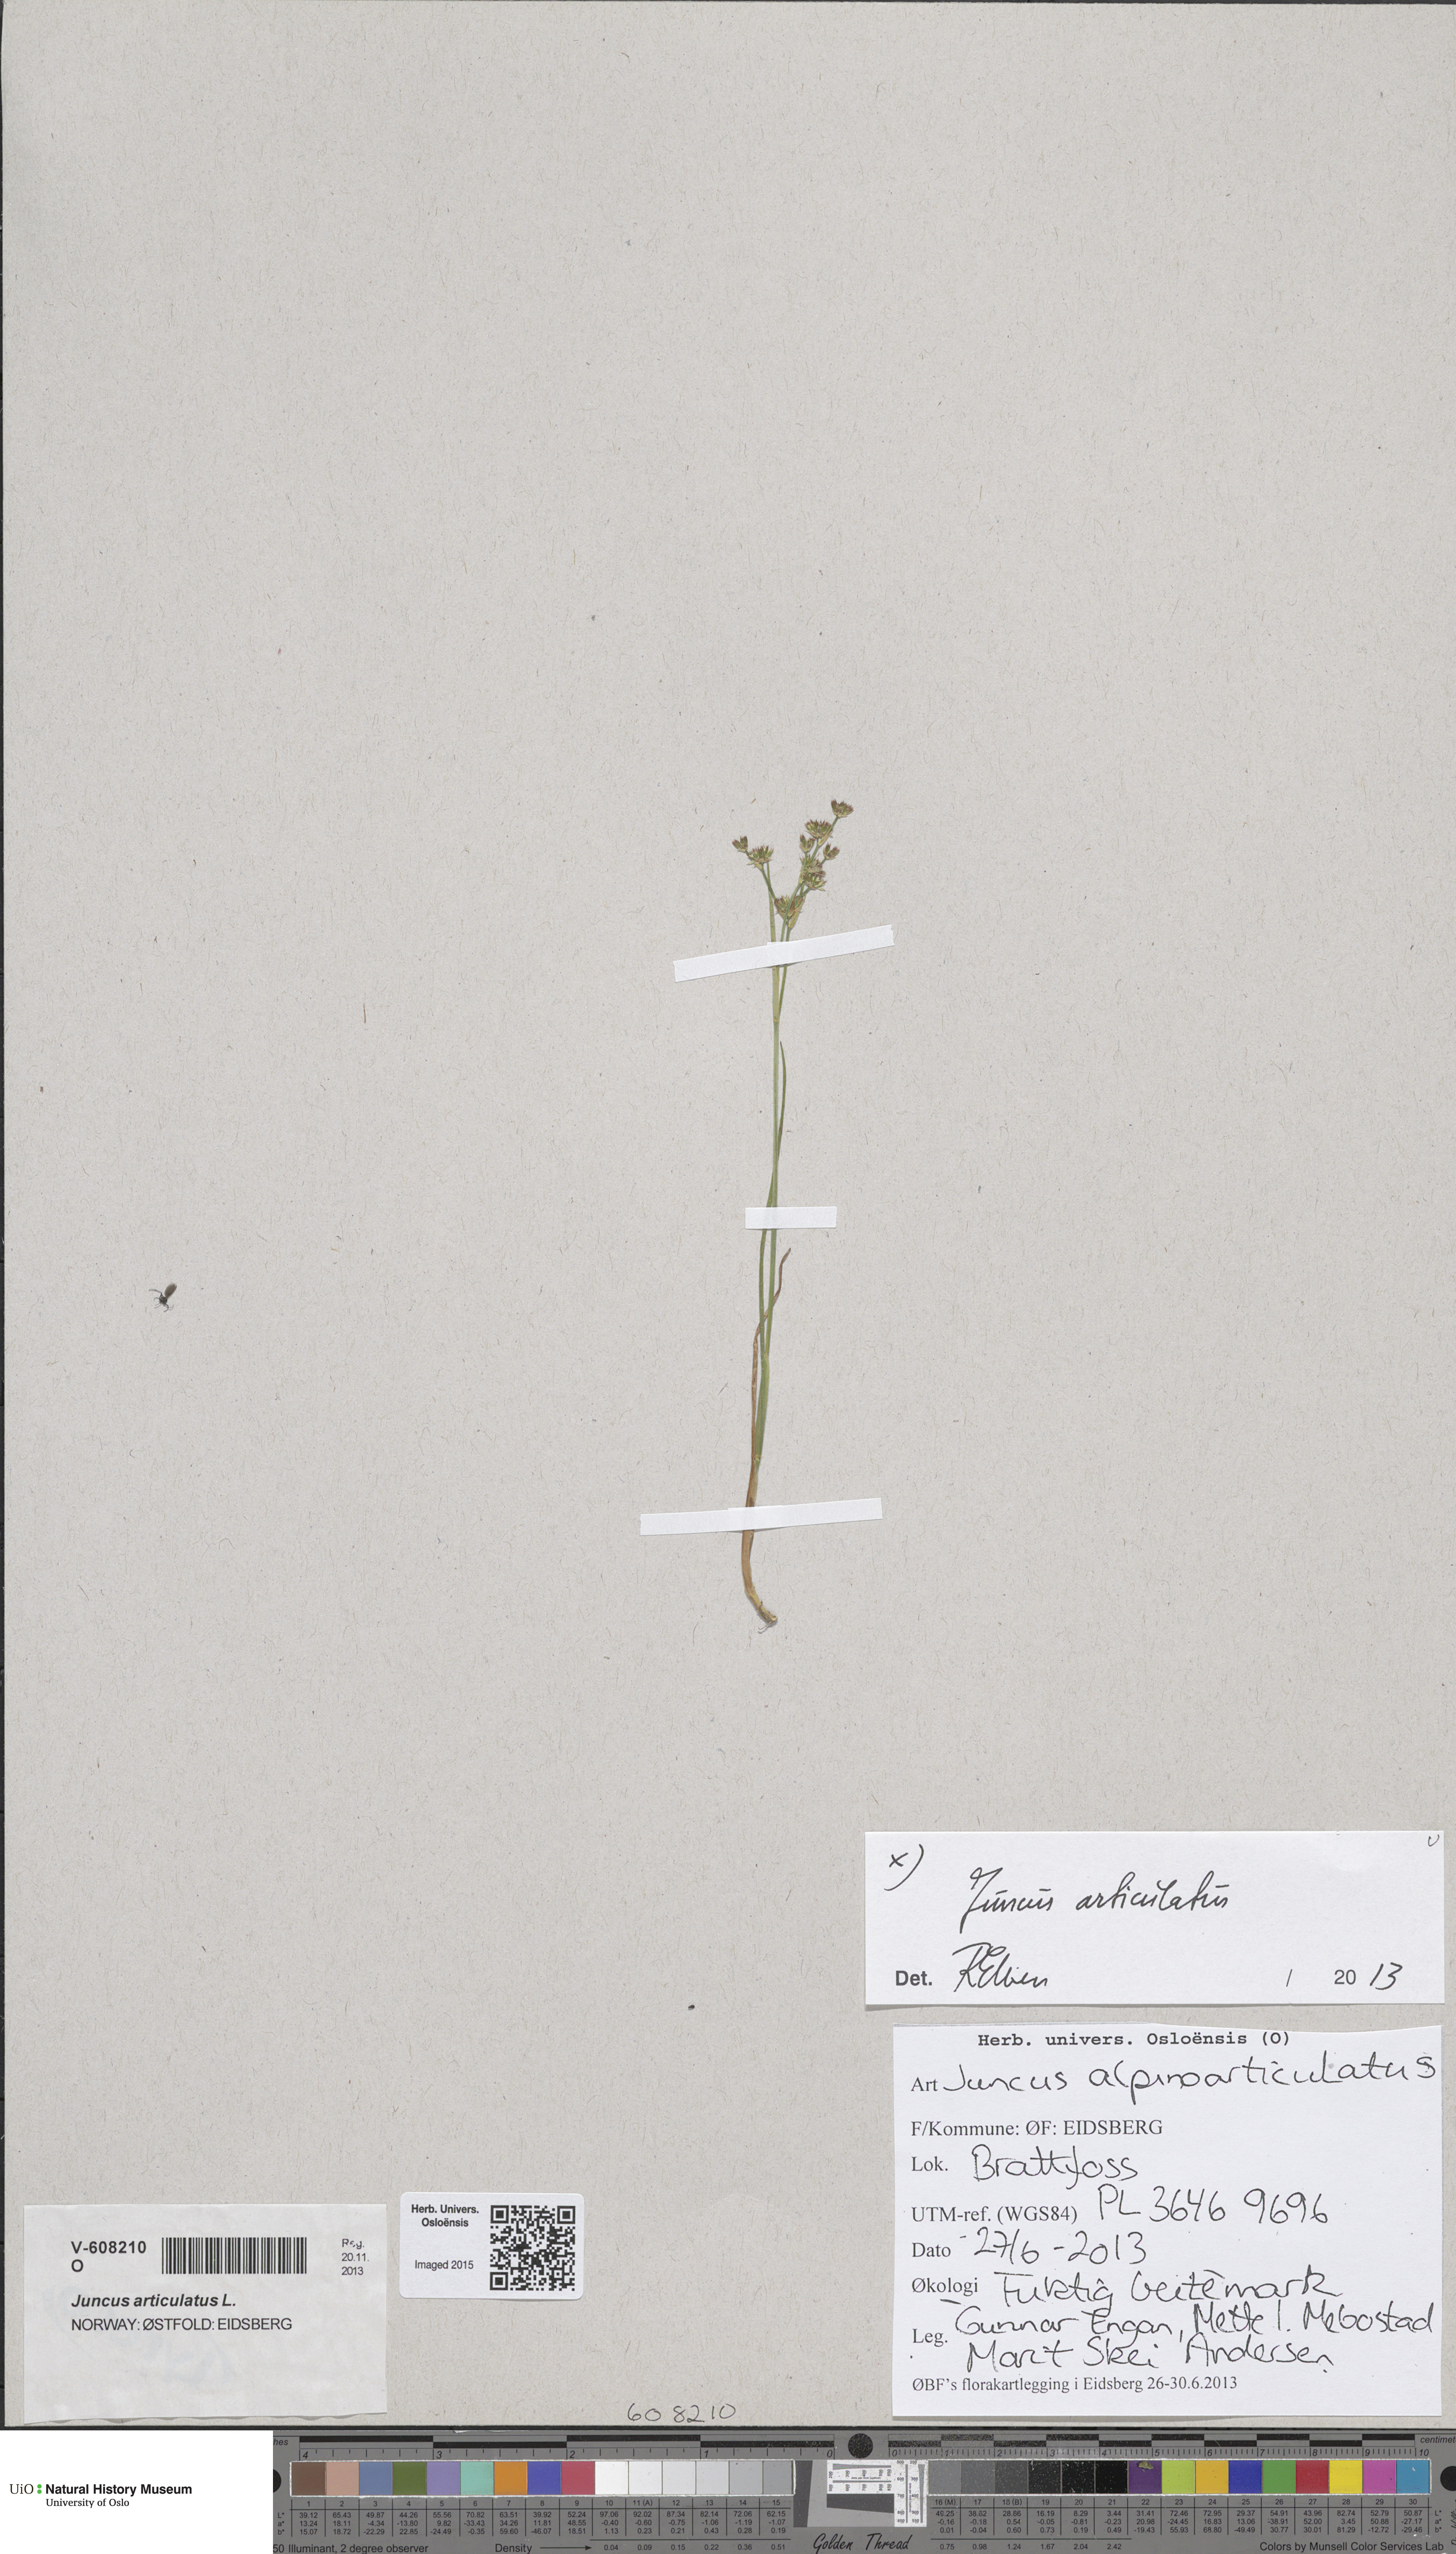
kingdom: Plantae
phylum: Tracheophyta
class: Liliopsida
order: Poales
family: Juncaceae
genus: Juncus
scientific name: Juncus articulatus
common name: Jointed rush
